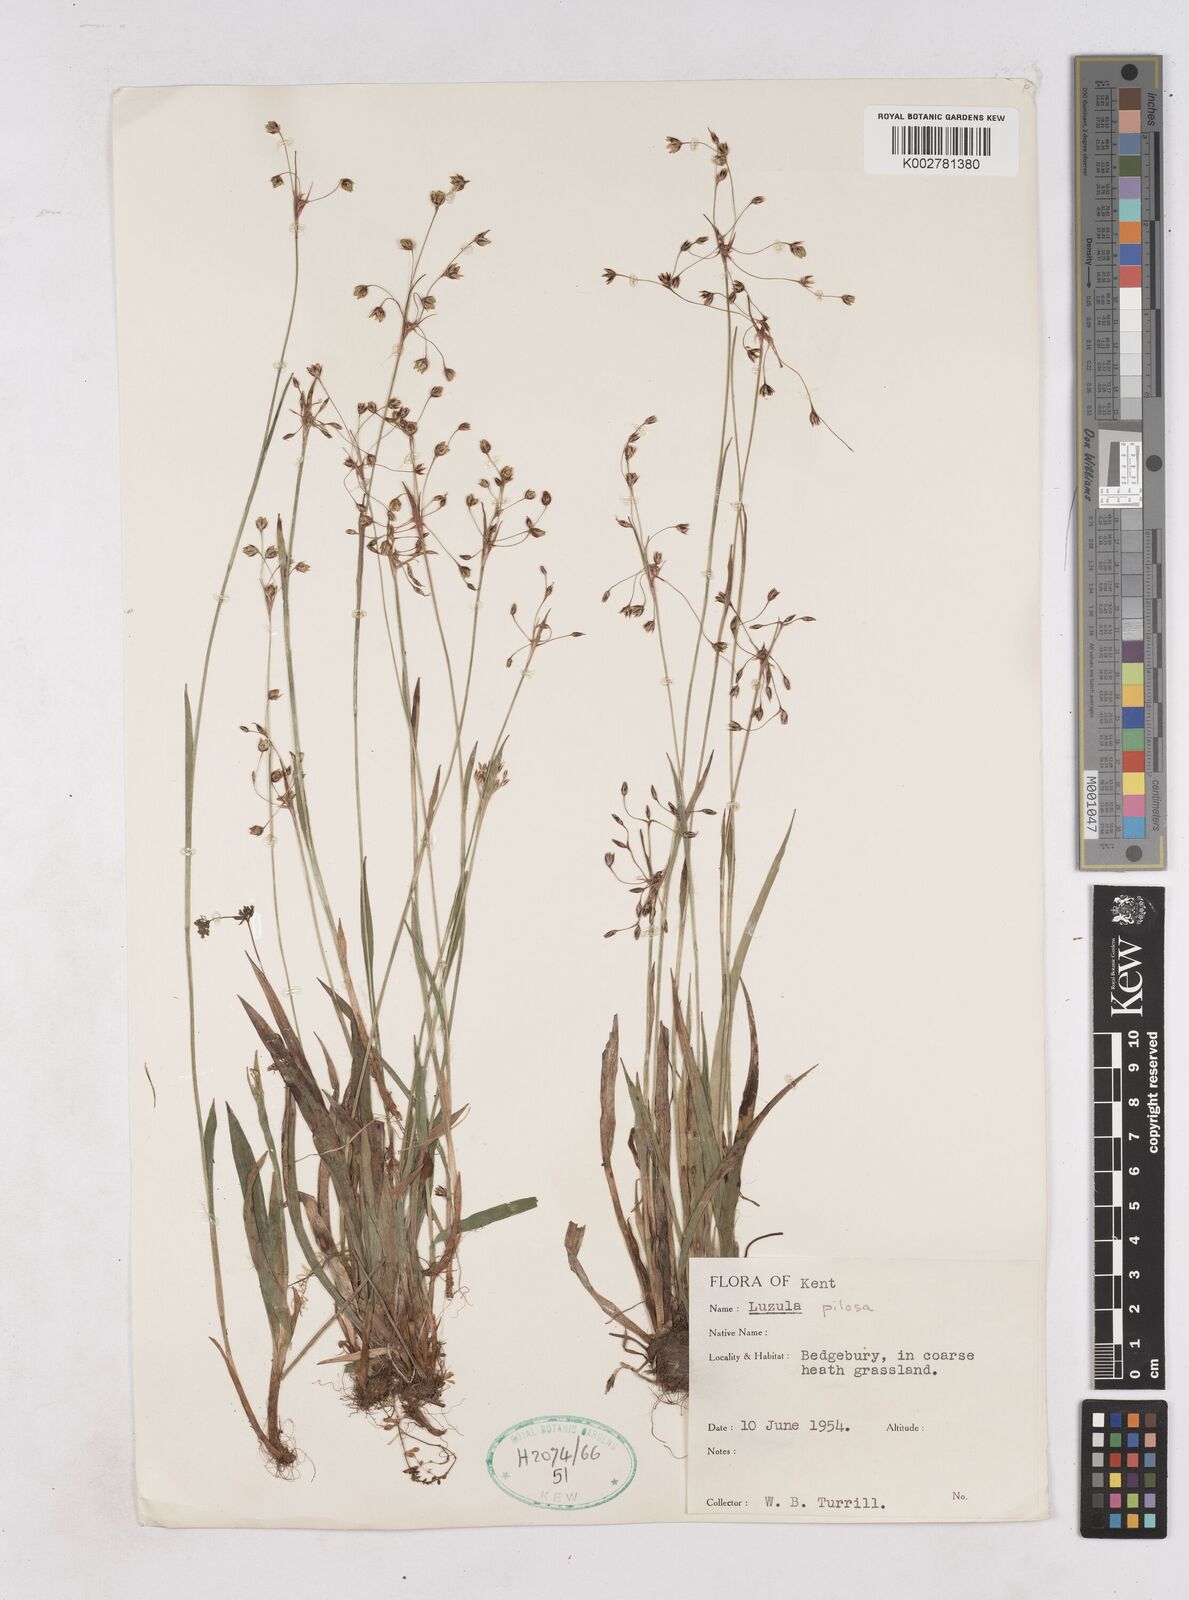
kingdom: Plantae
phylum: Tracheophyta
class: Liliopsida
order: Poales
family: Juncaceae
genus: Luzula
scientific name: Luzula pilosa
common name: Hairy wood-rush
